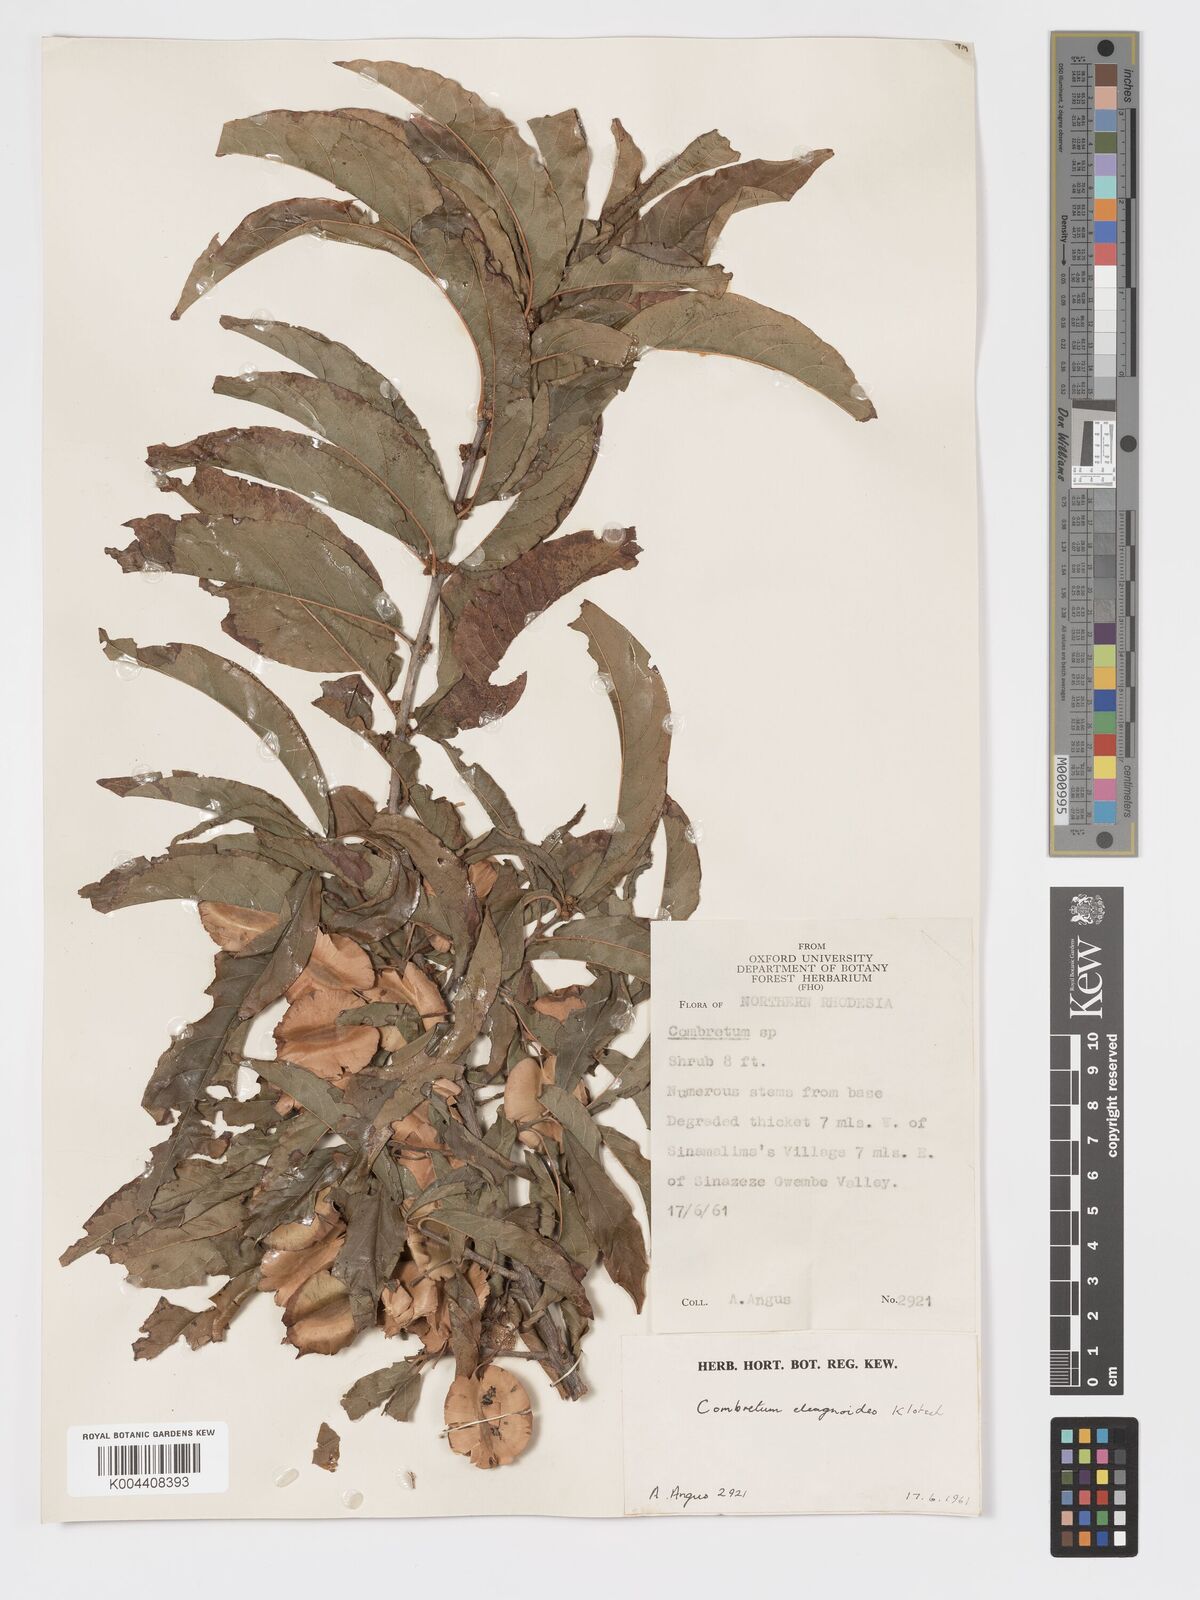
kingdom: Plantae
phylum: Tracheophyta
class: Magnoliopsida
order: Myrtales
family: Combretaceae
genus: Combretum
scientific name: Combretum elaeagnoides
